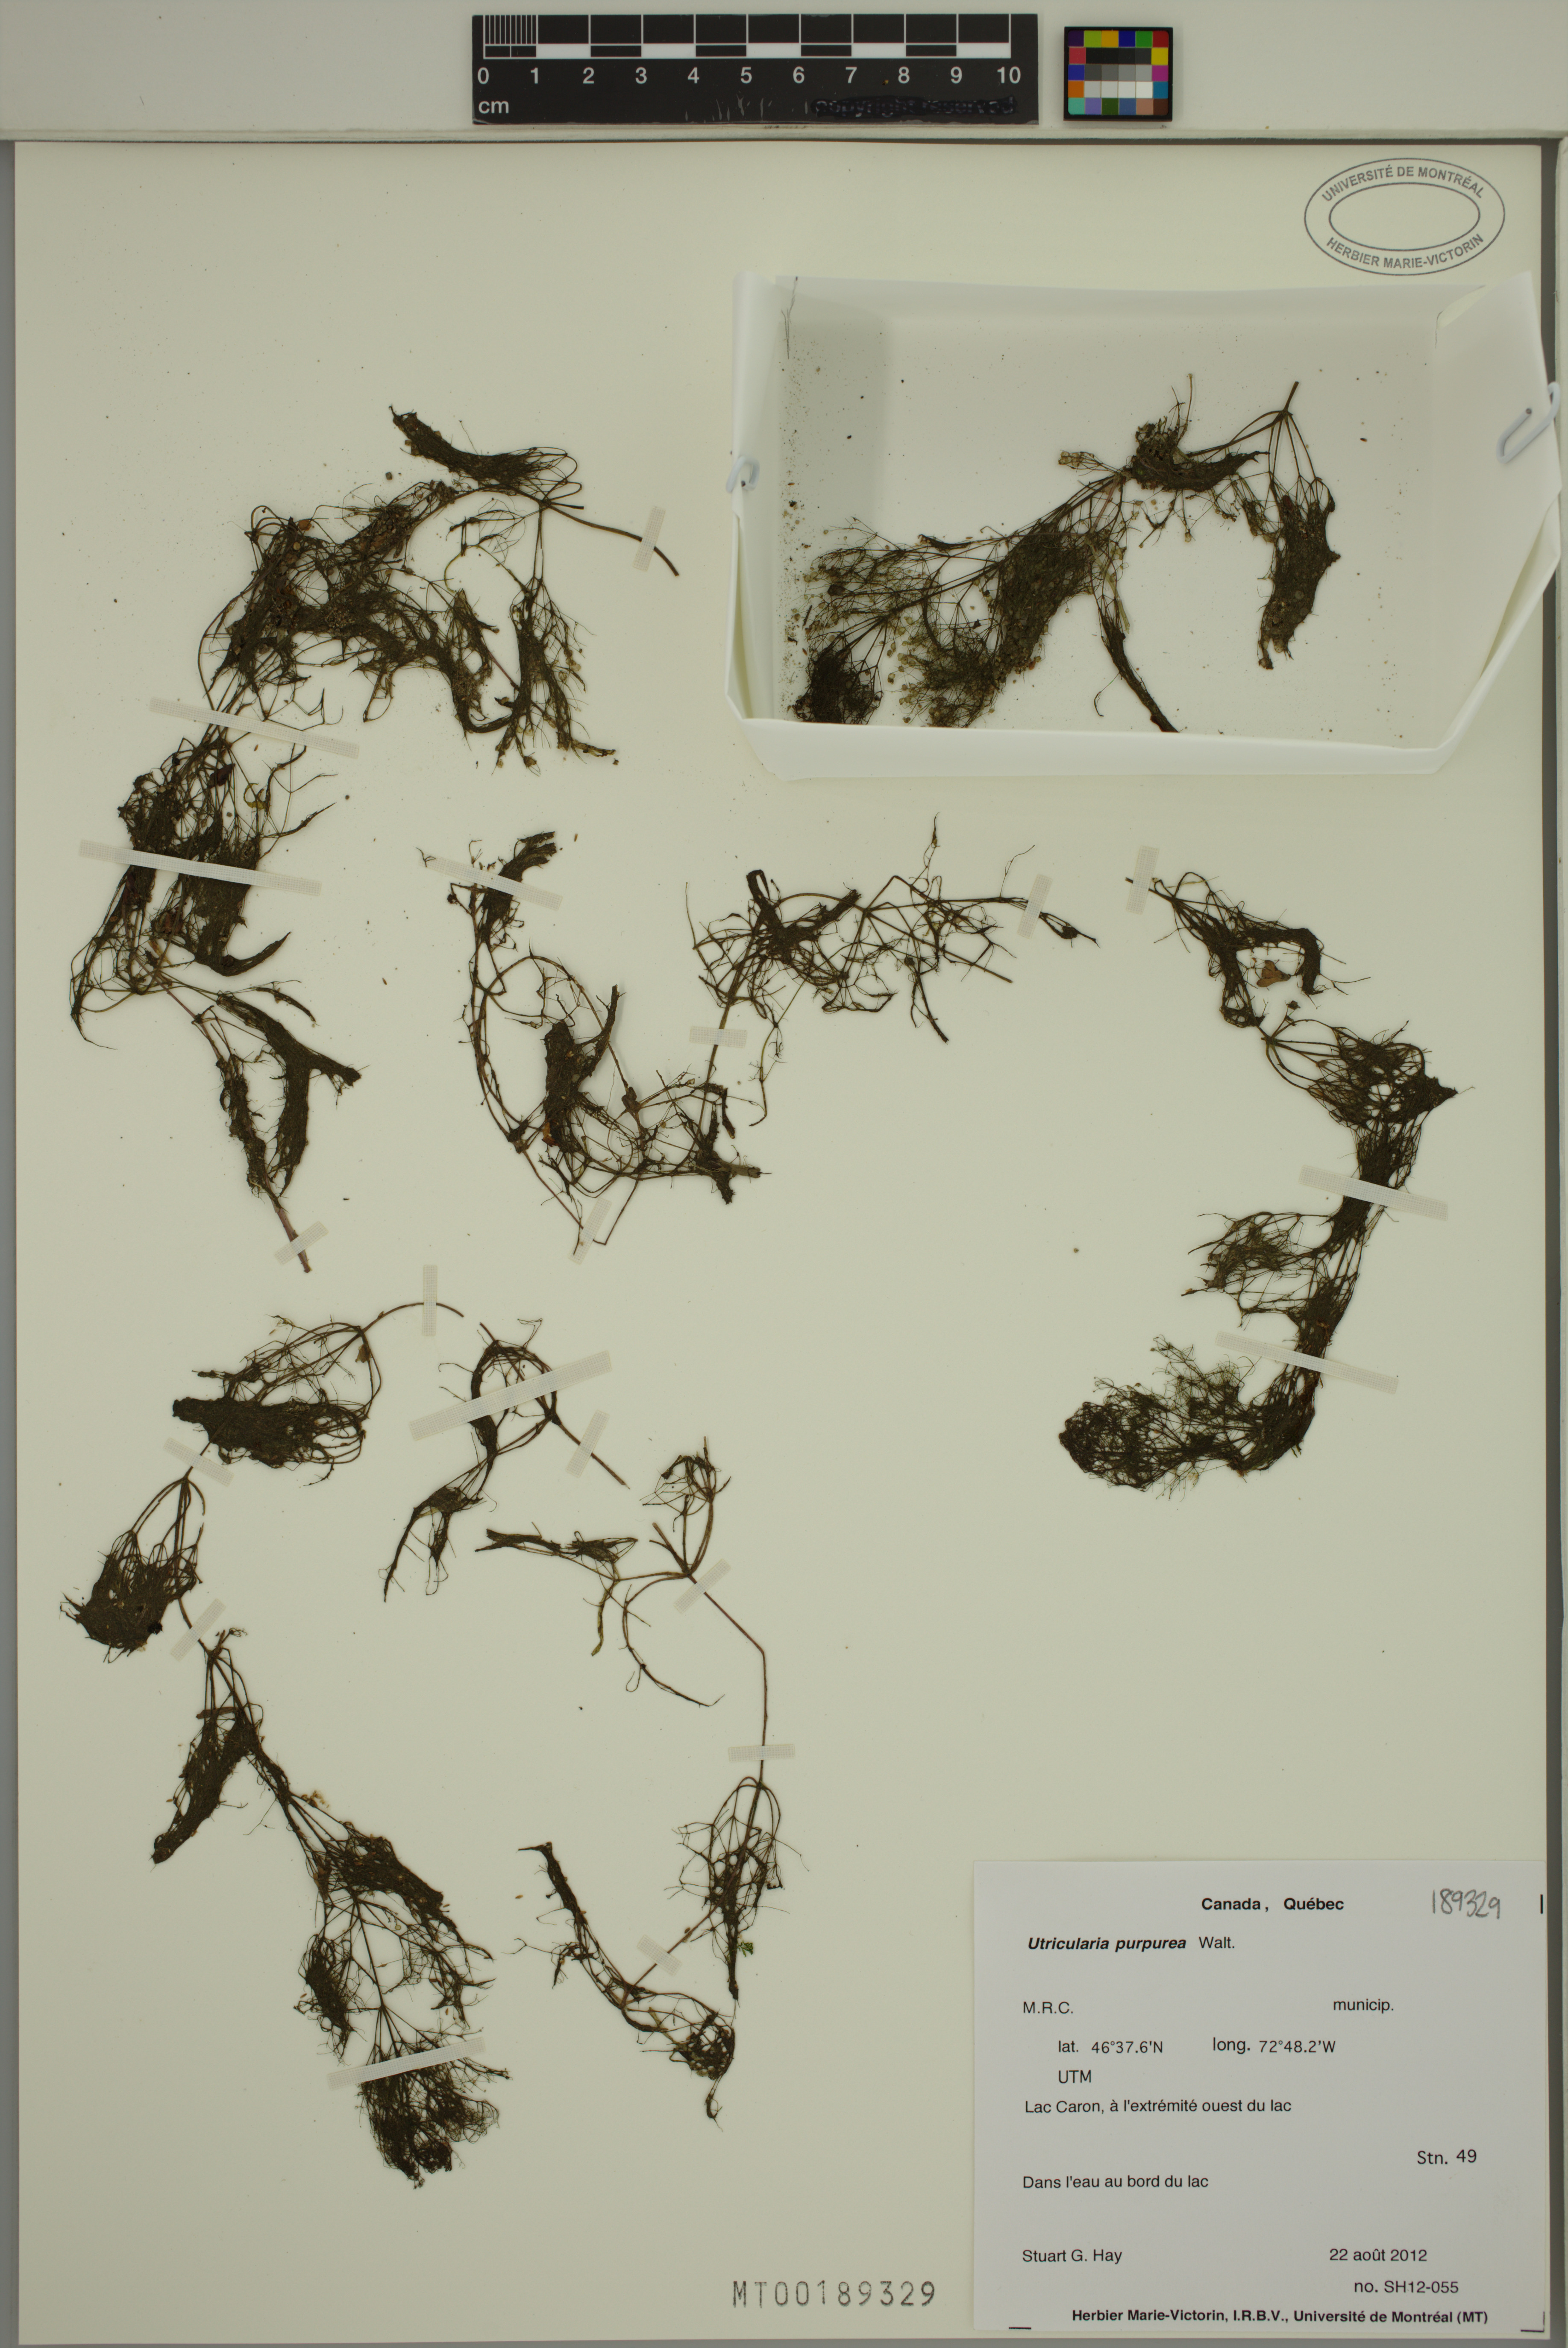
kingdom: Plantae
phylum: Tracheophyta
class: Magnoliopsida
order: Lamiales
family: Lentibulariaceae
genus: Utricularia
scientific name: Utricularia purpurea
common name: Eastern purple bladderwort
